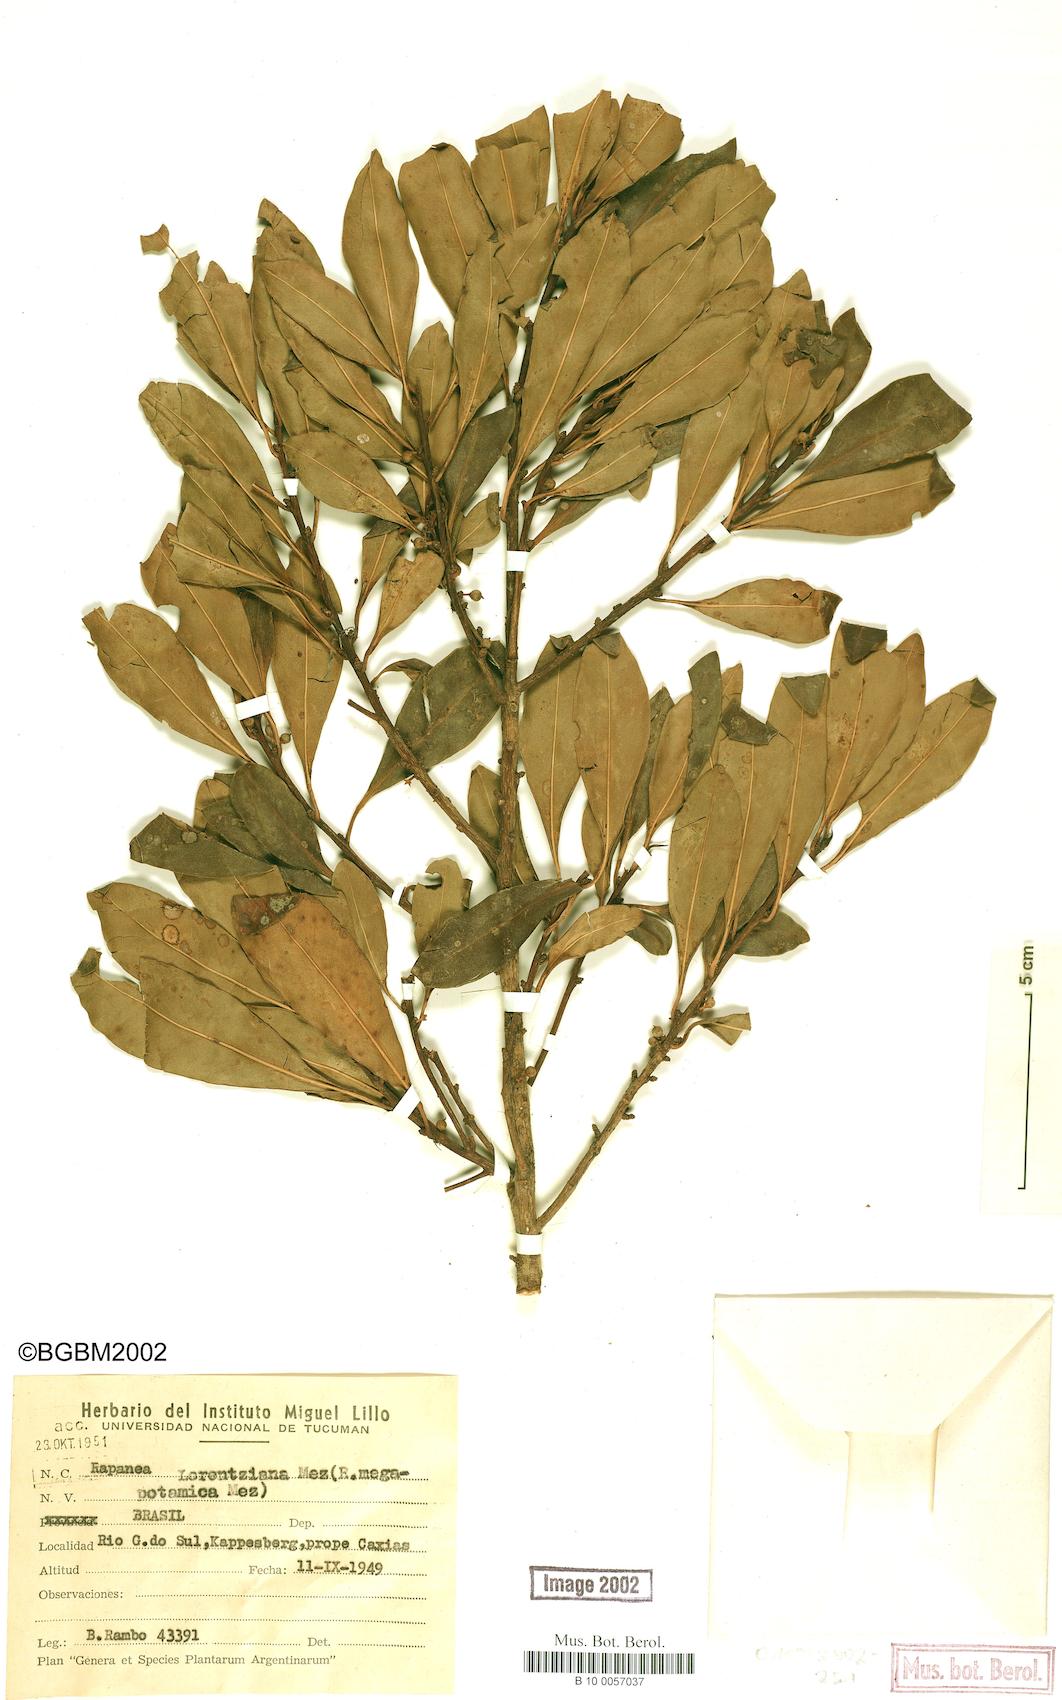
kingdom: Plantae
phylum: Tracheophyta
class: Magnoliopsida
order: Ericales
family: Primulaceae
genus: Myrsine
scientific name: Myrsine lorentziana
